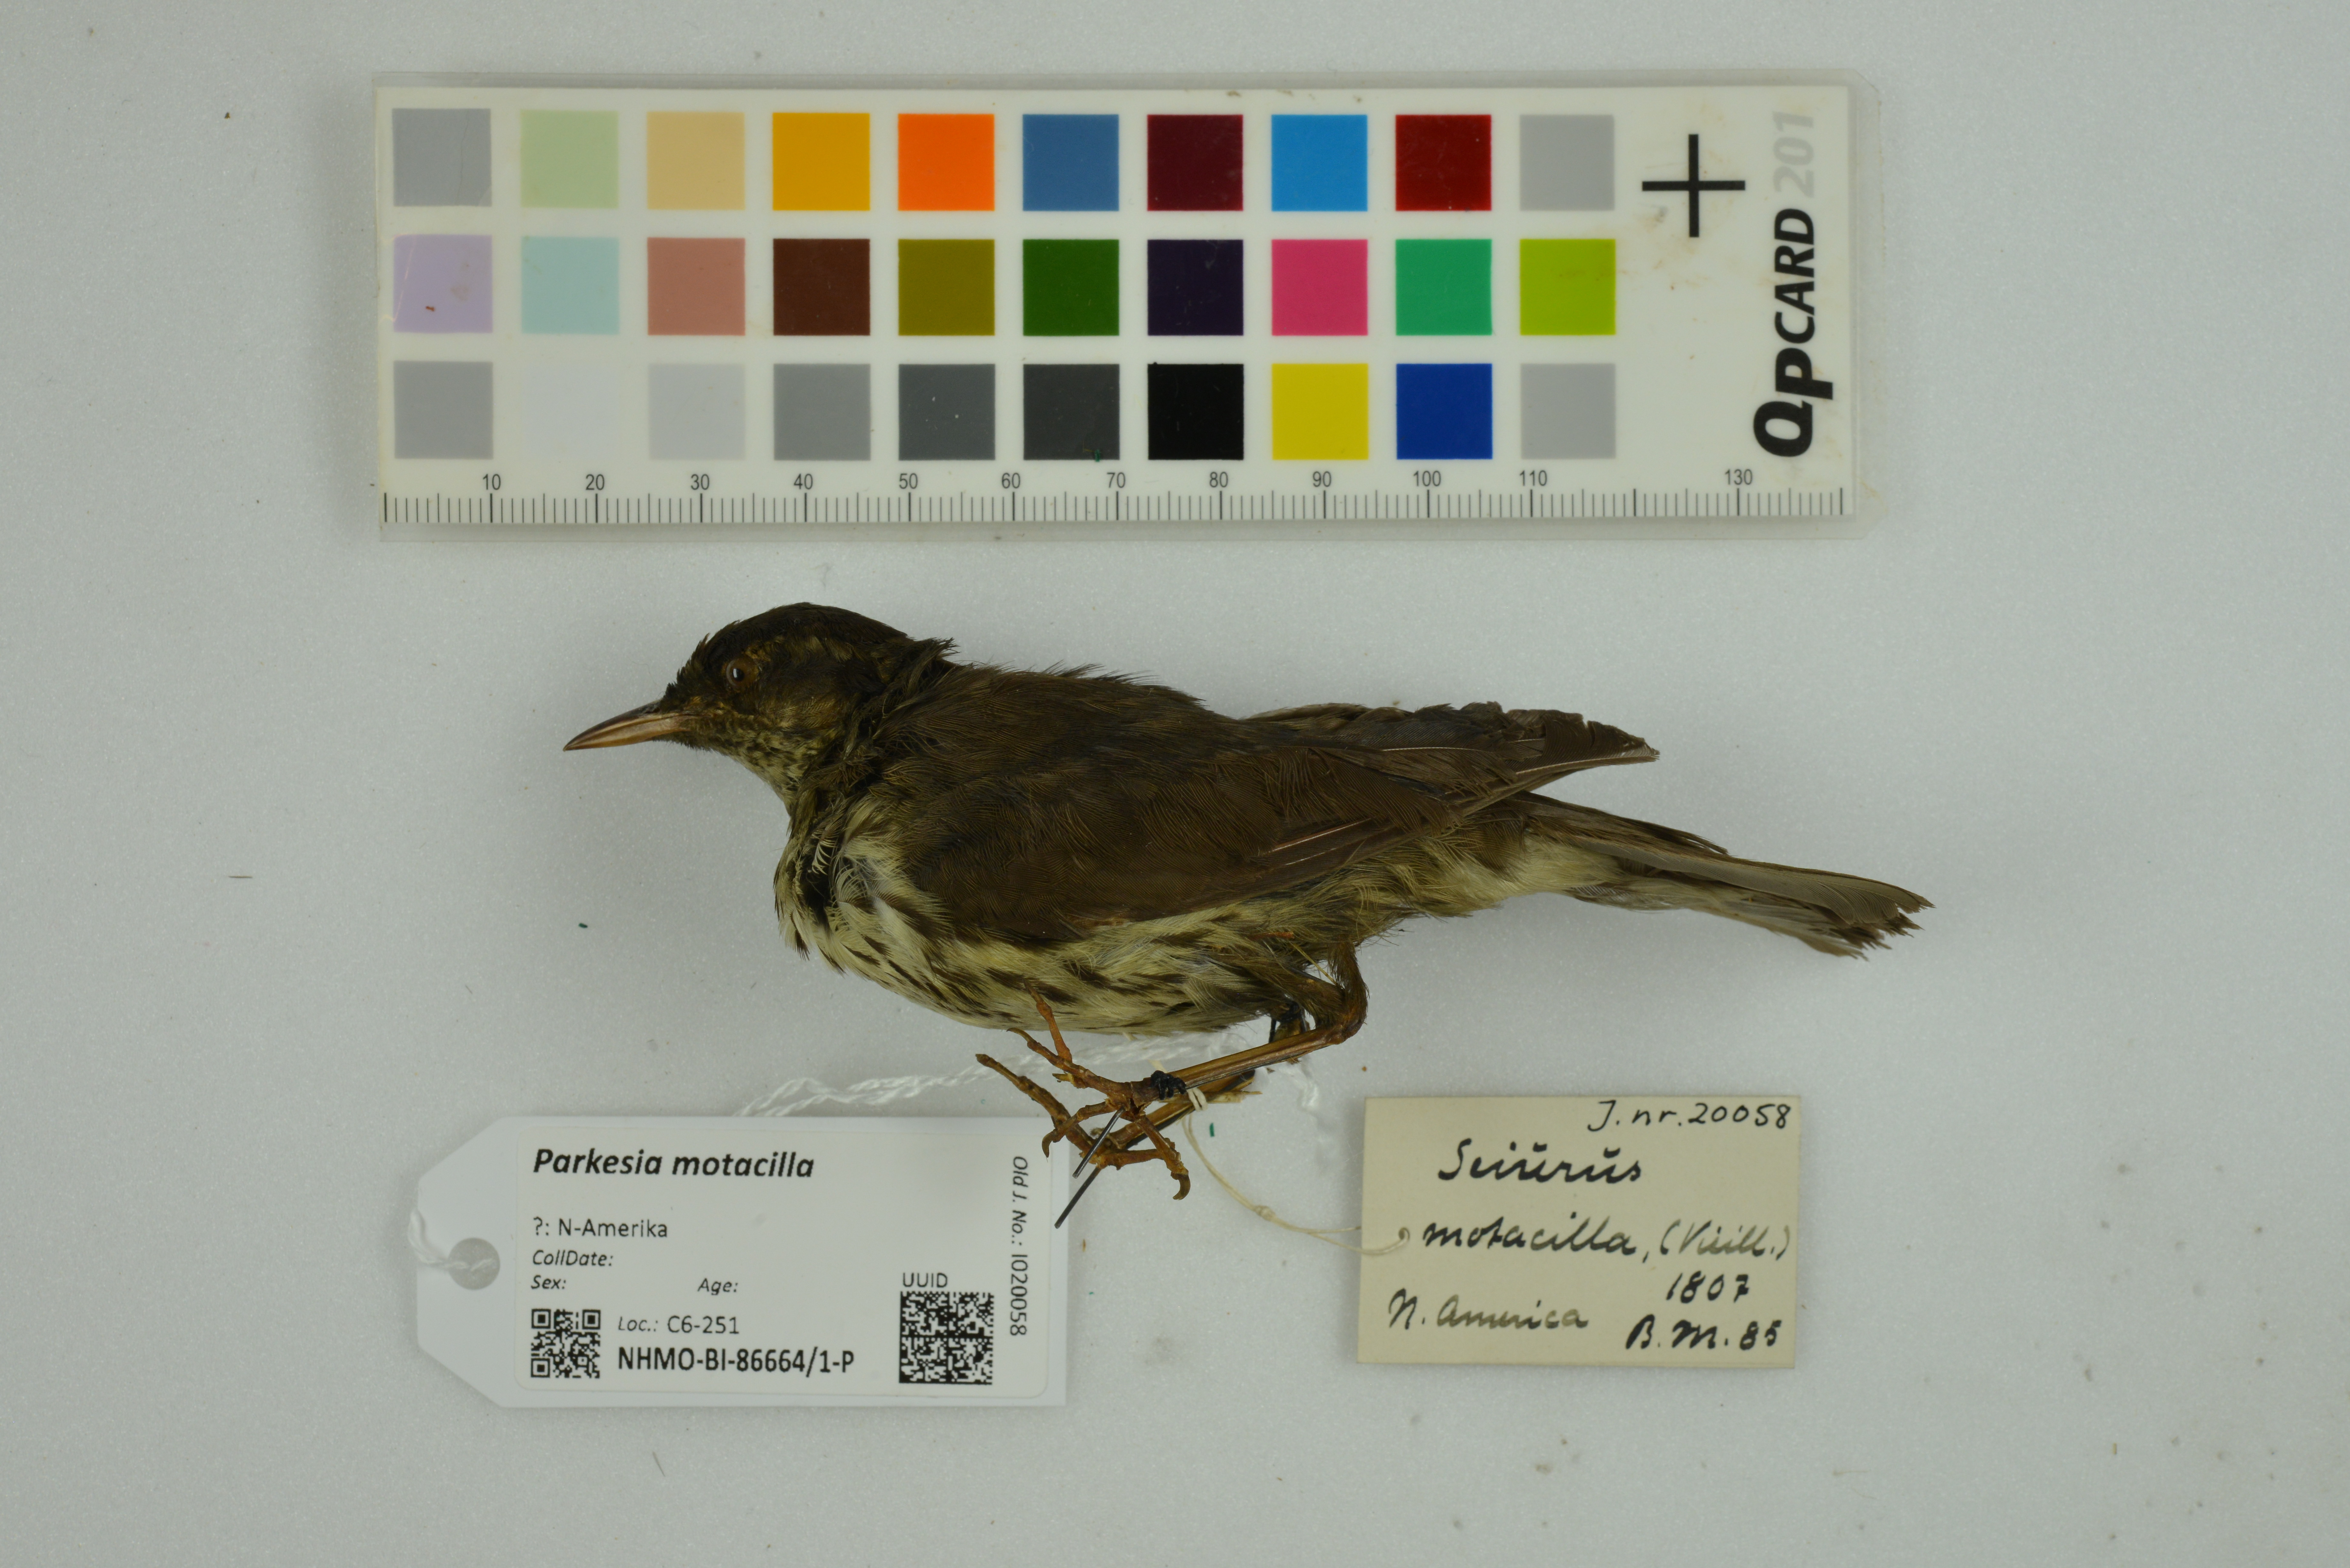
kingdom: Animalia
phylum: Chordata
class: Aves
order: Passeriformes
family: Parulidae
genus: Parkesia
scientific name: Parkesia motacilla
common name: Louisiana waterthrush
